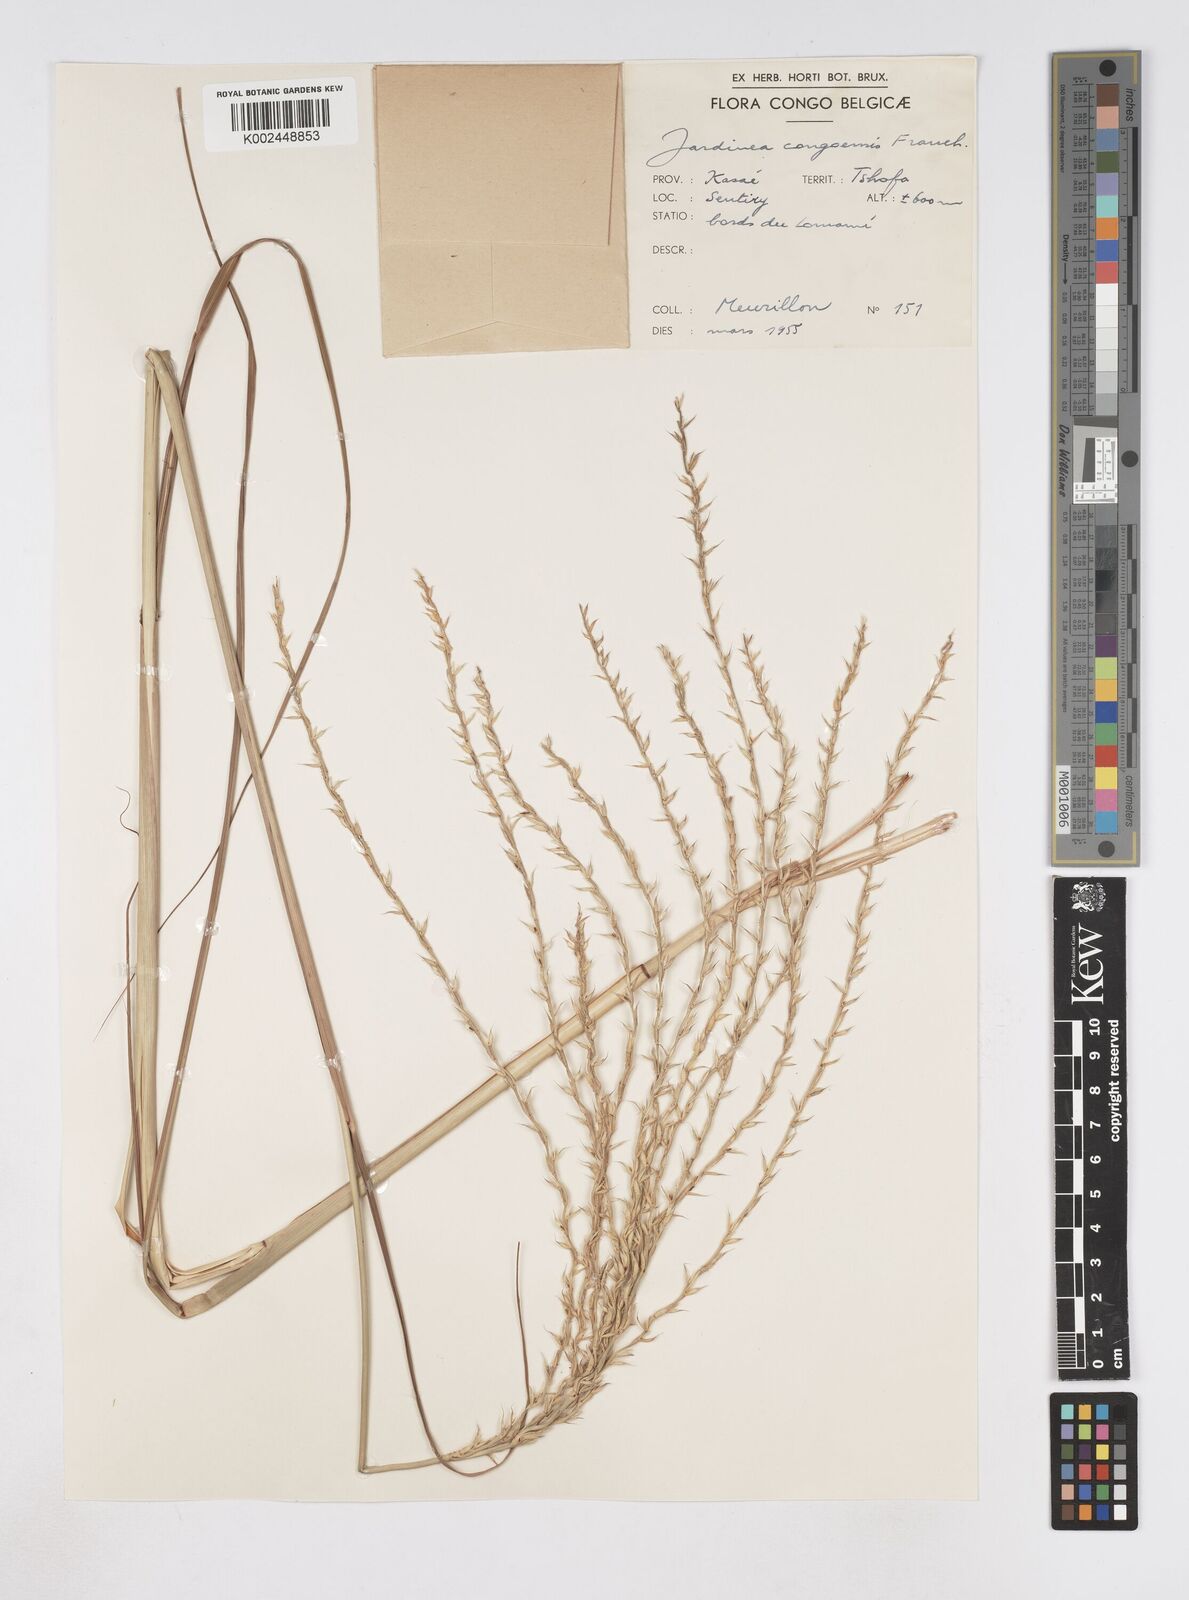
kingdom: Plantae
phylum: Tracheophyta
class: Liliopsida
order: Poales
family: Poaceae
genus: Phacelurus
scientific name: Phacelurus gabonensis
